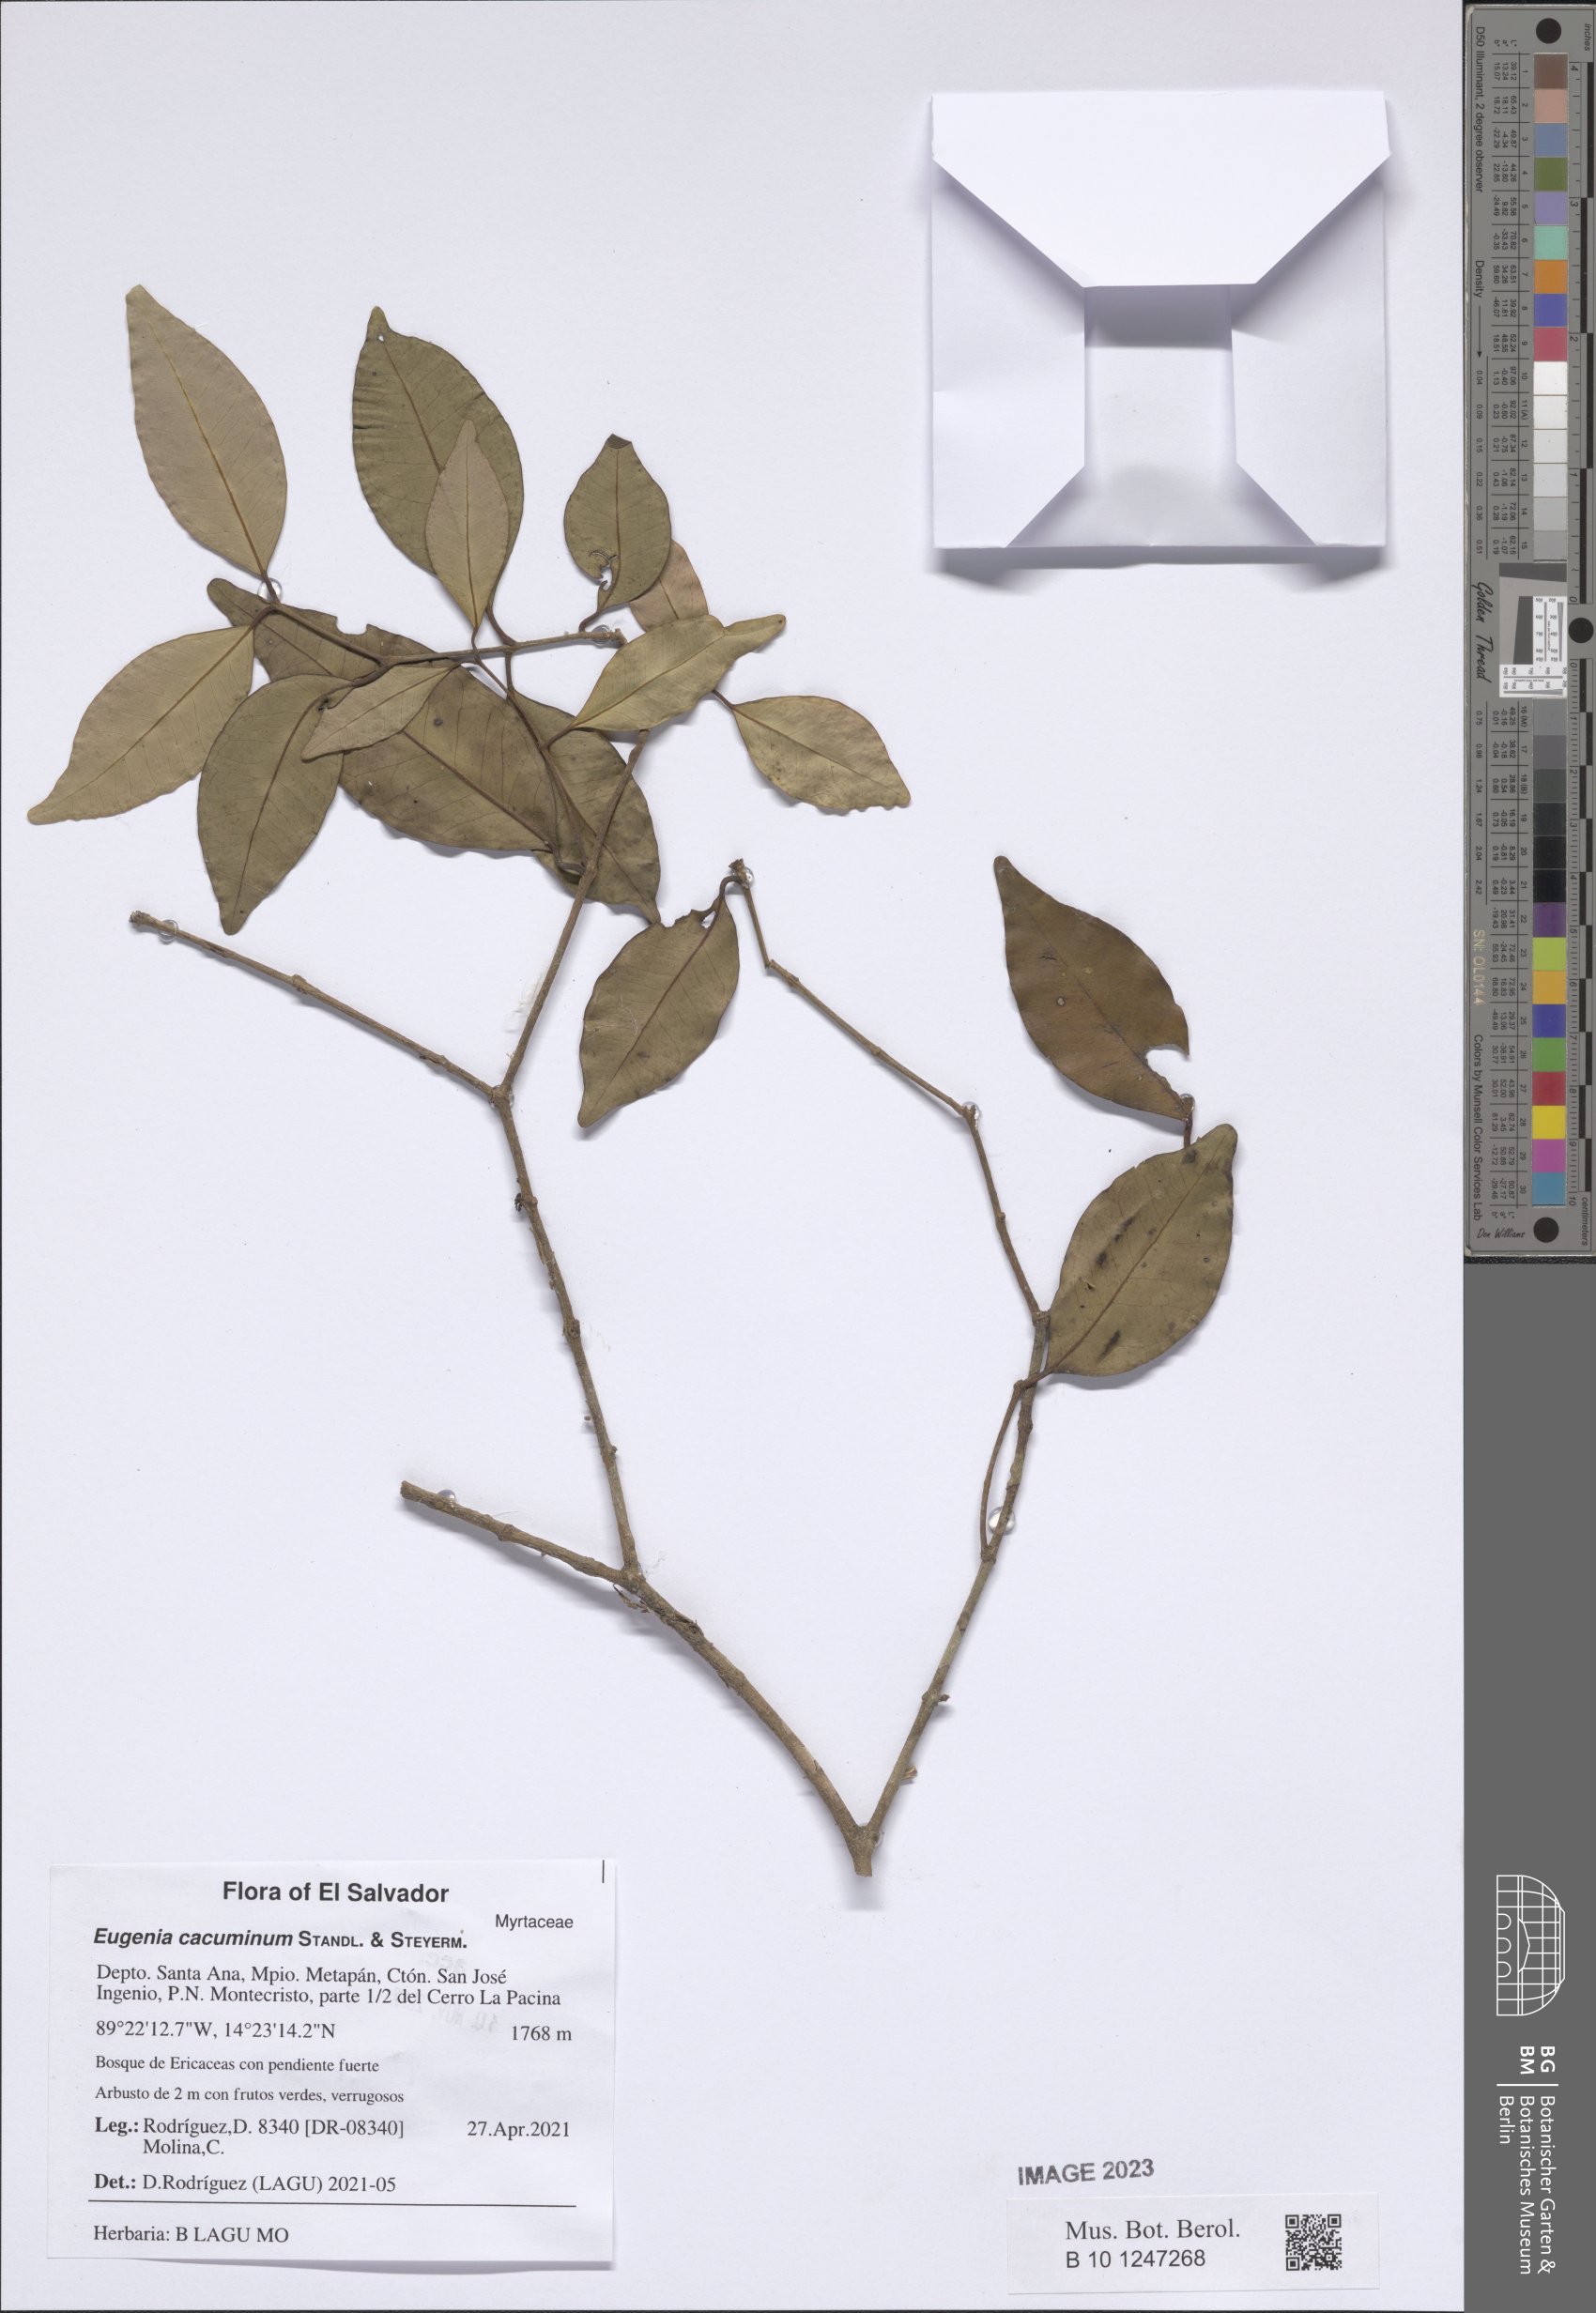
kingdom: Plantae
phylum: Tracheophyta
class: Magnoliopsida
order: Myrtales
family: Myrtaceae
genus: Eugenia
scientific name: Eugenia cacuminum
